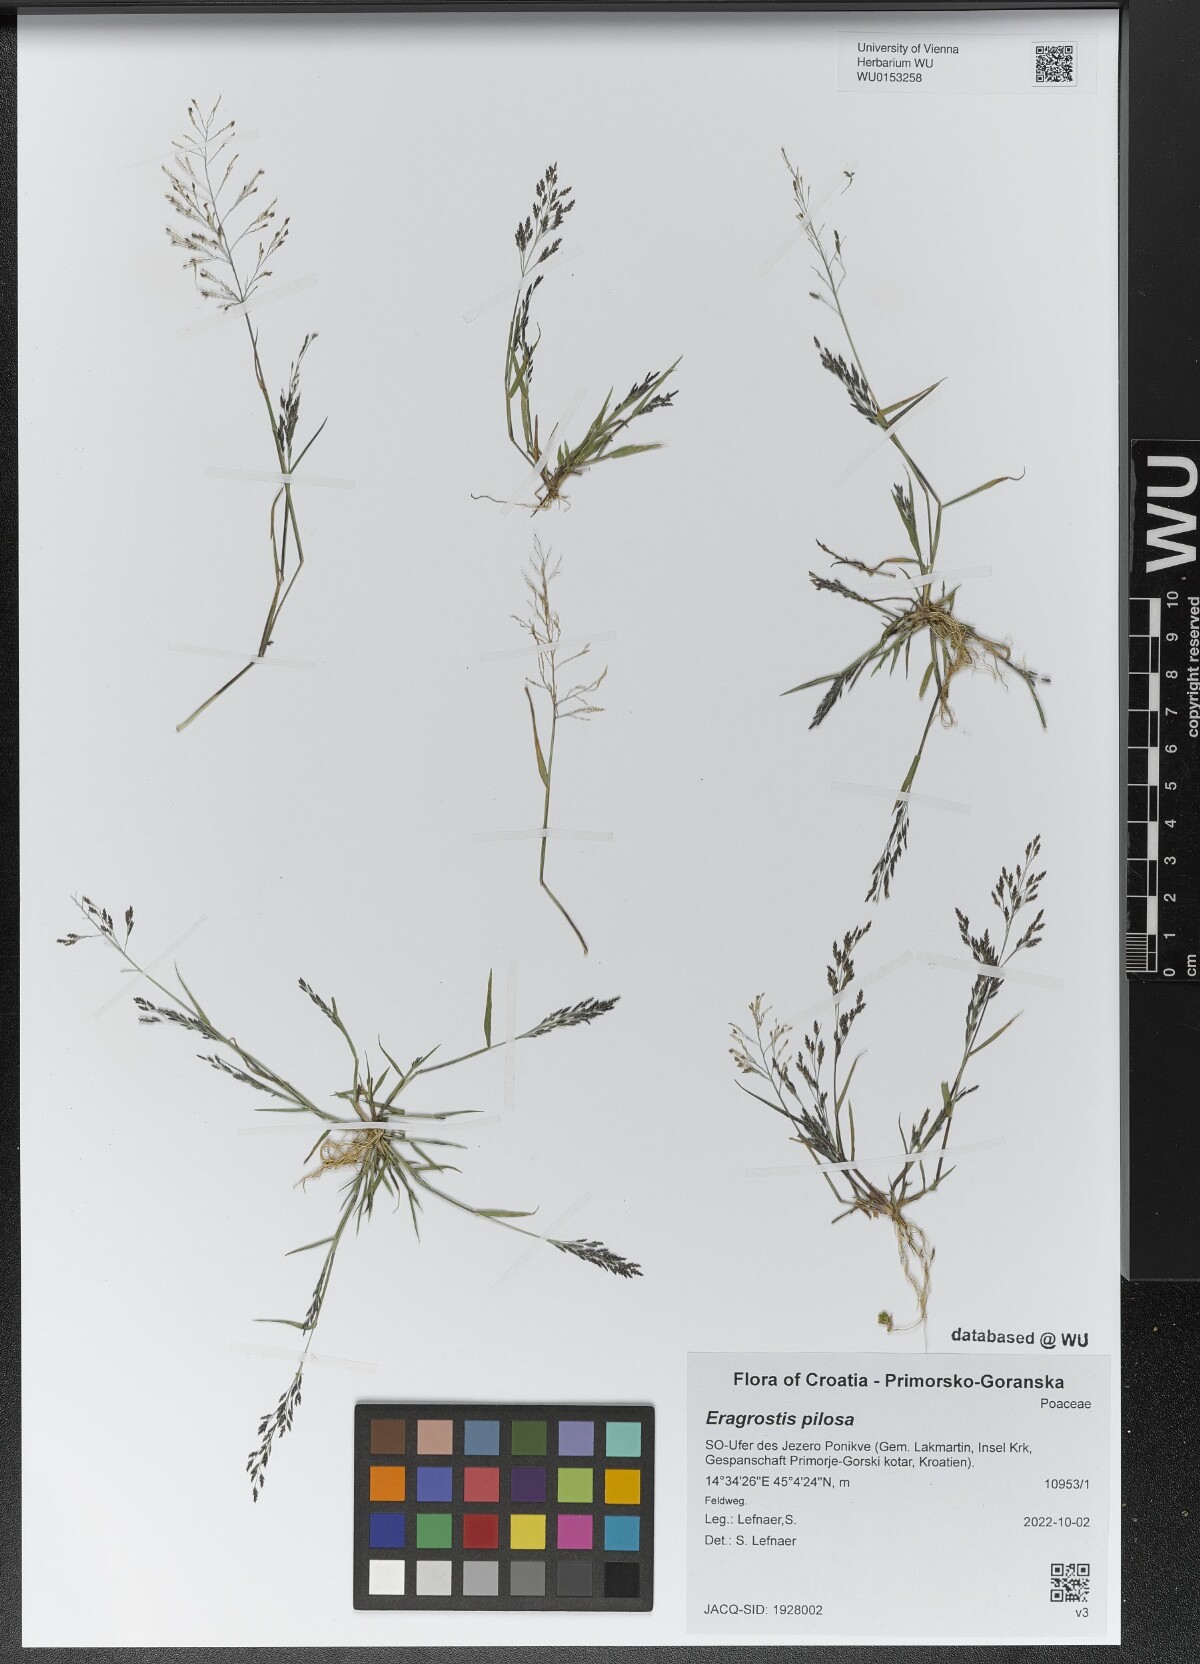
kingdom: Plantae
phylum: Tracheophyta
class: Liliopsida
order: Poales
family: Poaceae
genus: Eragrostis
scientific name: Eragrostis pilosa
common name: Indian lovegrass
